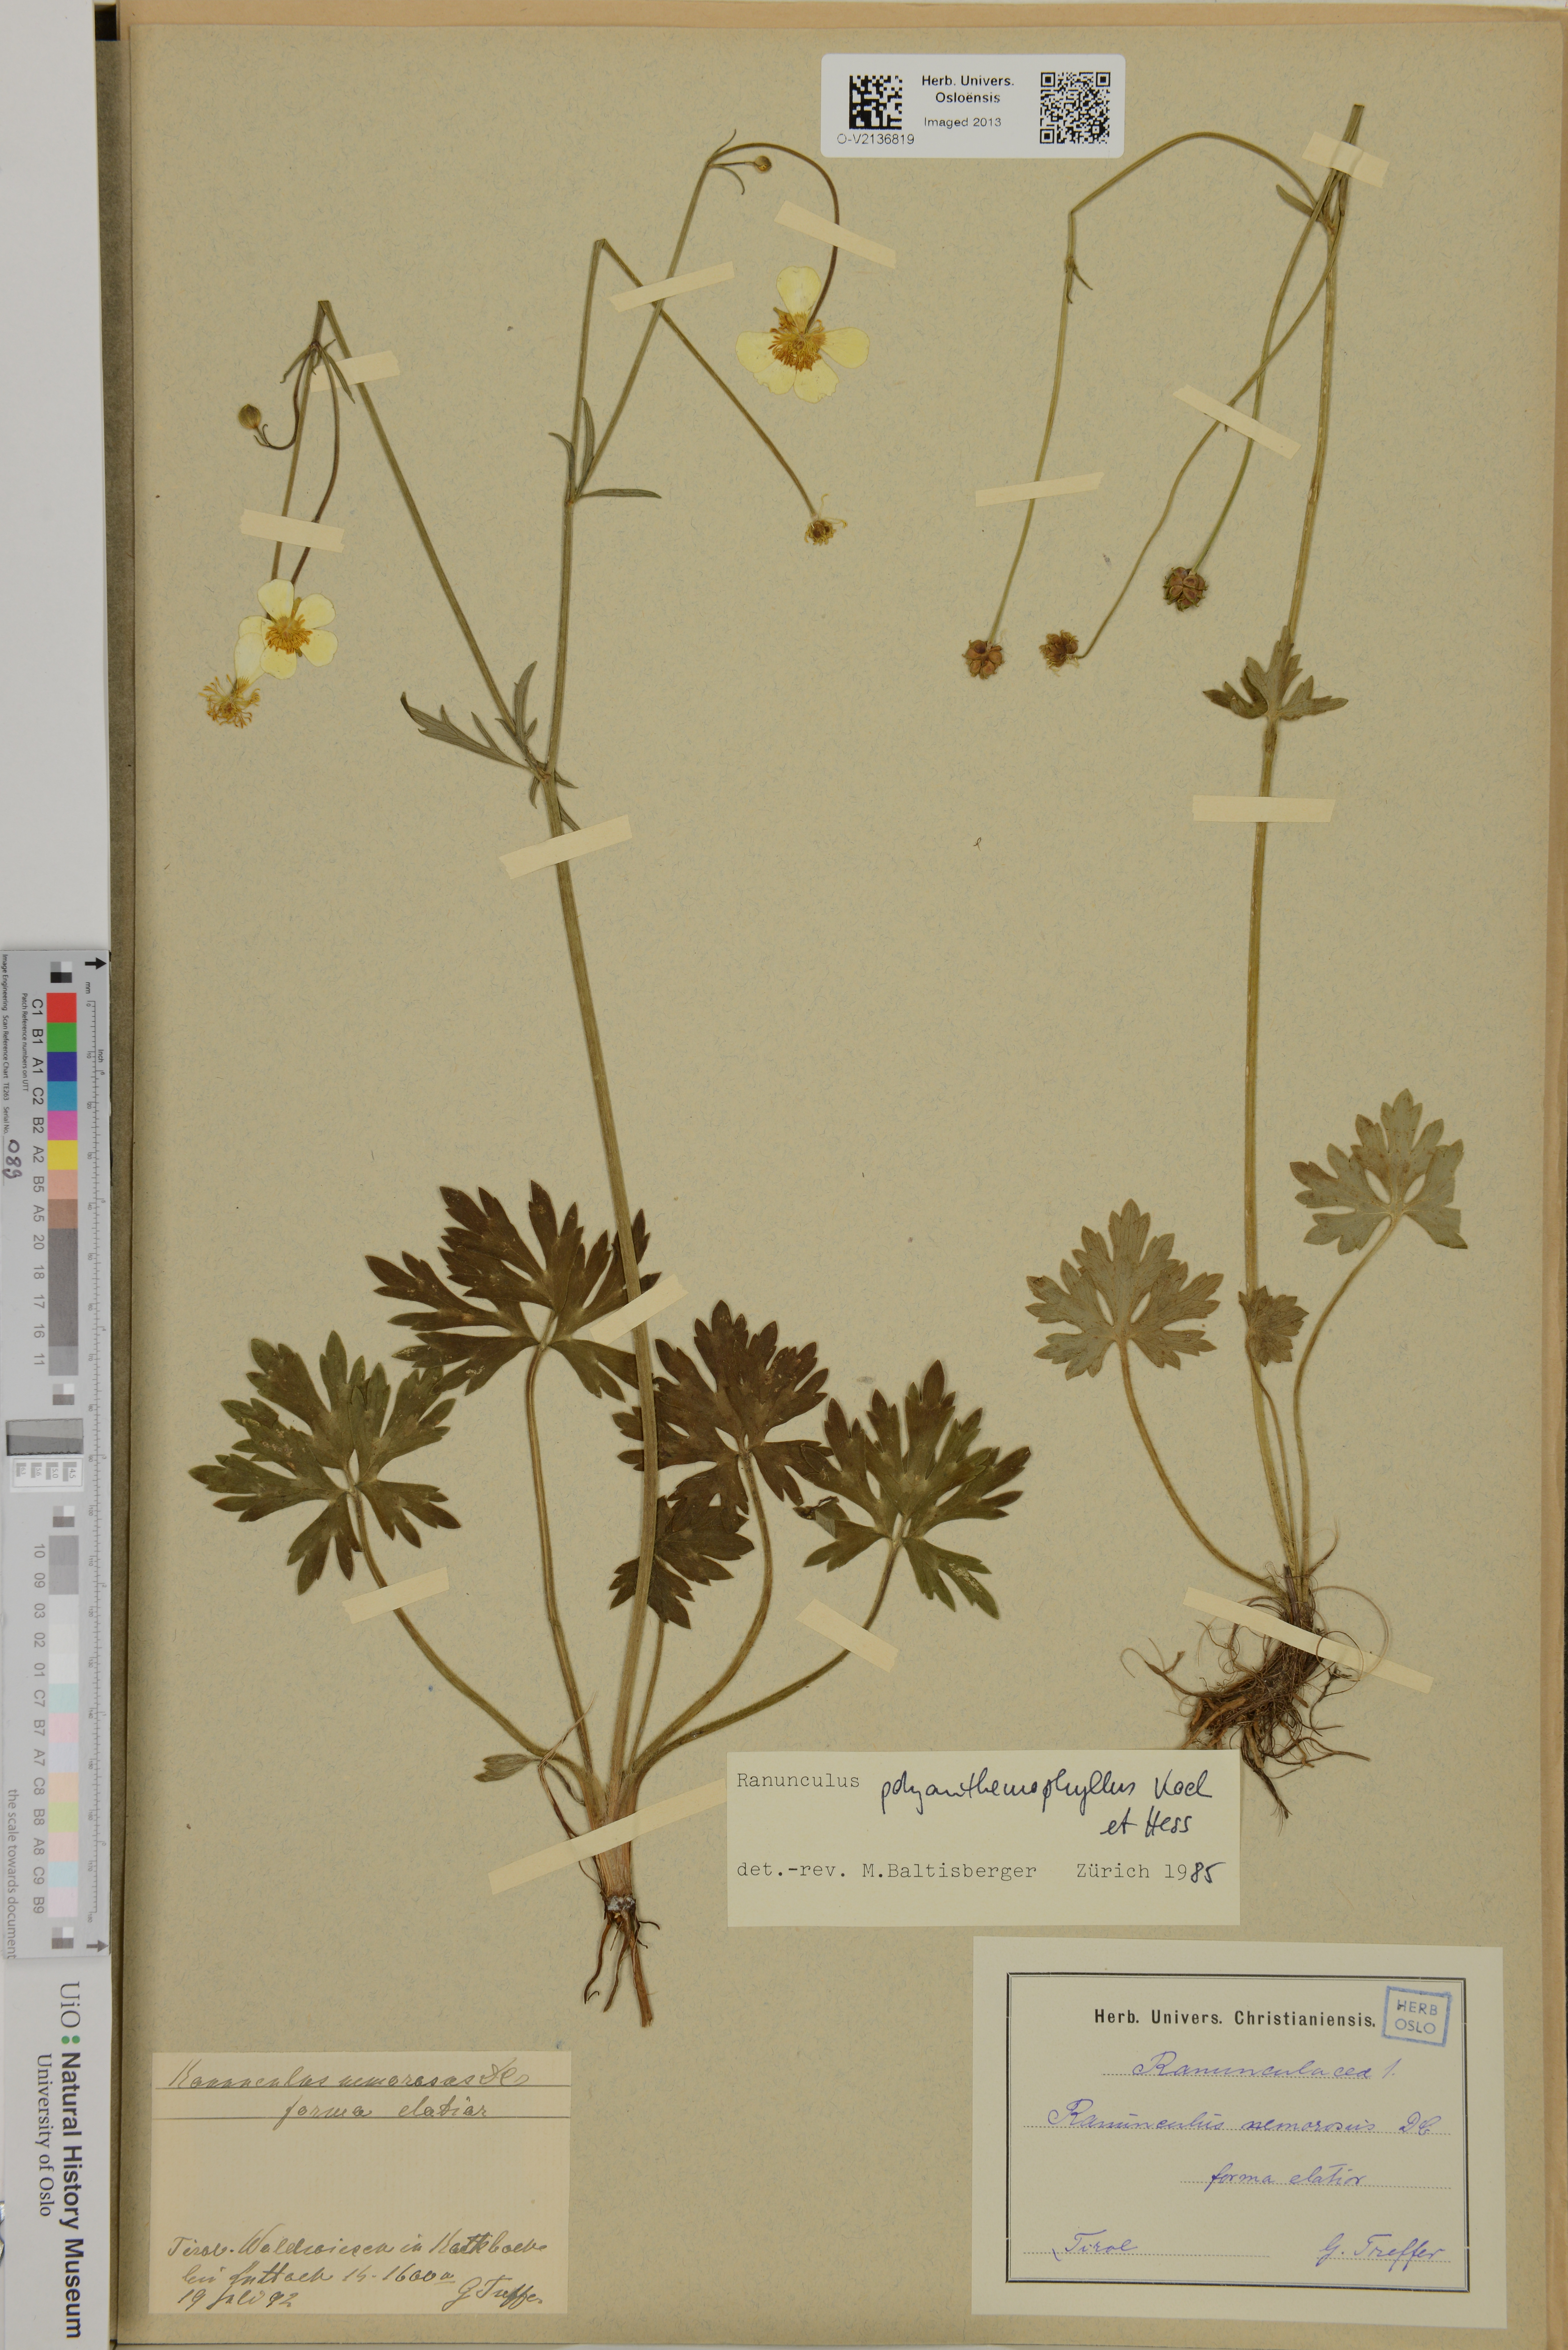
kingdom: Plantae
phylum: Tracheophyta
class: Magnoliopsida
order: Ranunculales
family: Ranunculaceae
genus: Ranunculus
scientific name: Ranunculus polyanthemos
